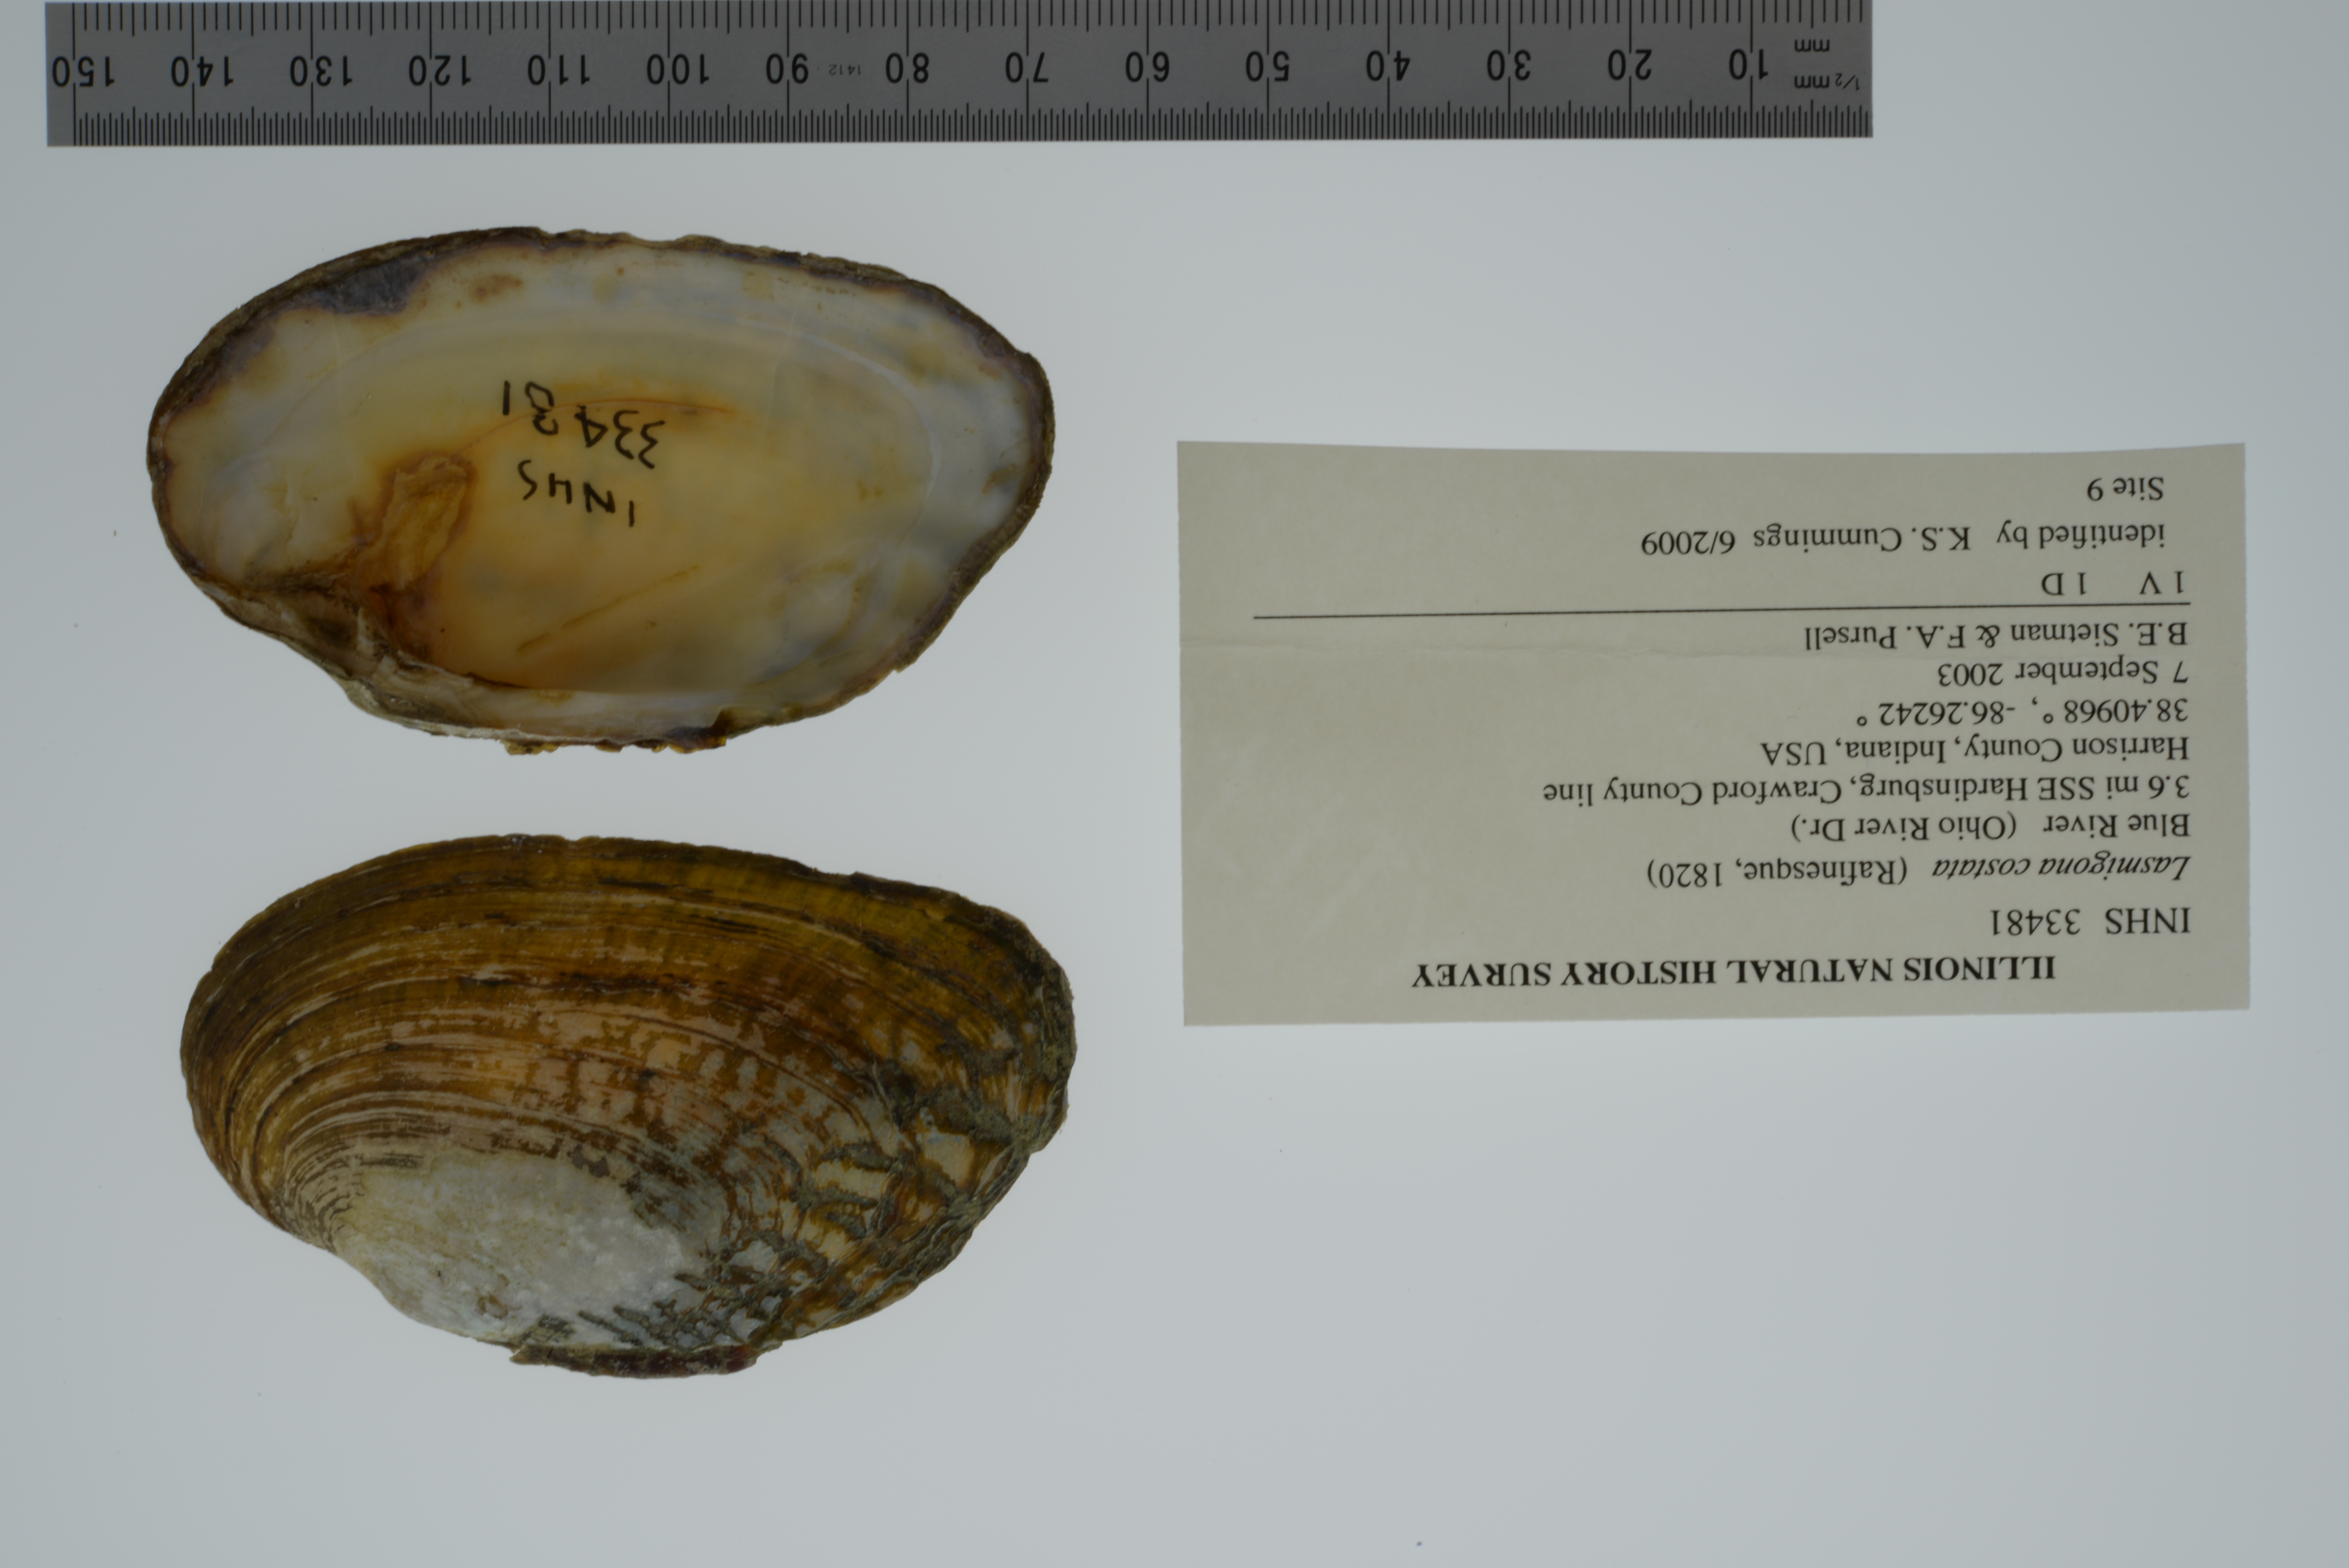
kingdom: Animalia
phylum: Mollusca
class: Bivalvia
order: Unionida
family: Unionidae
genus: Lasmigona
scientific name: Lasmigona costata
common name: Flutedshell
